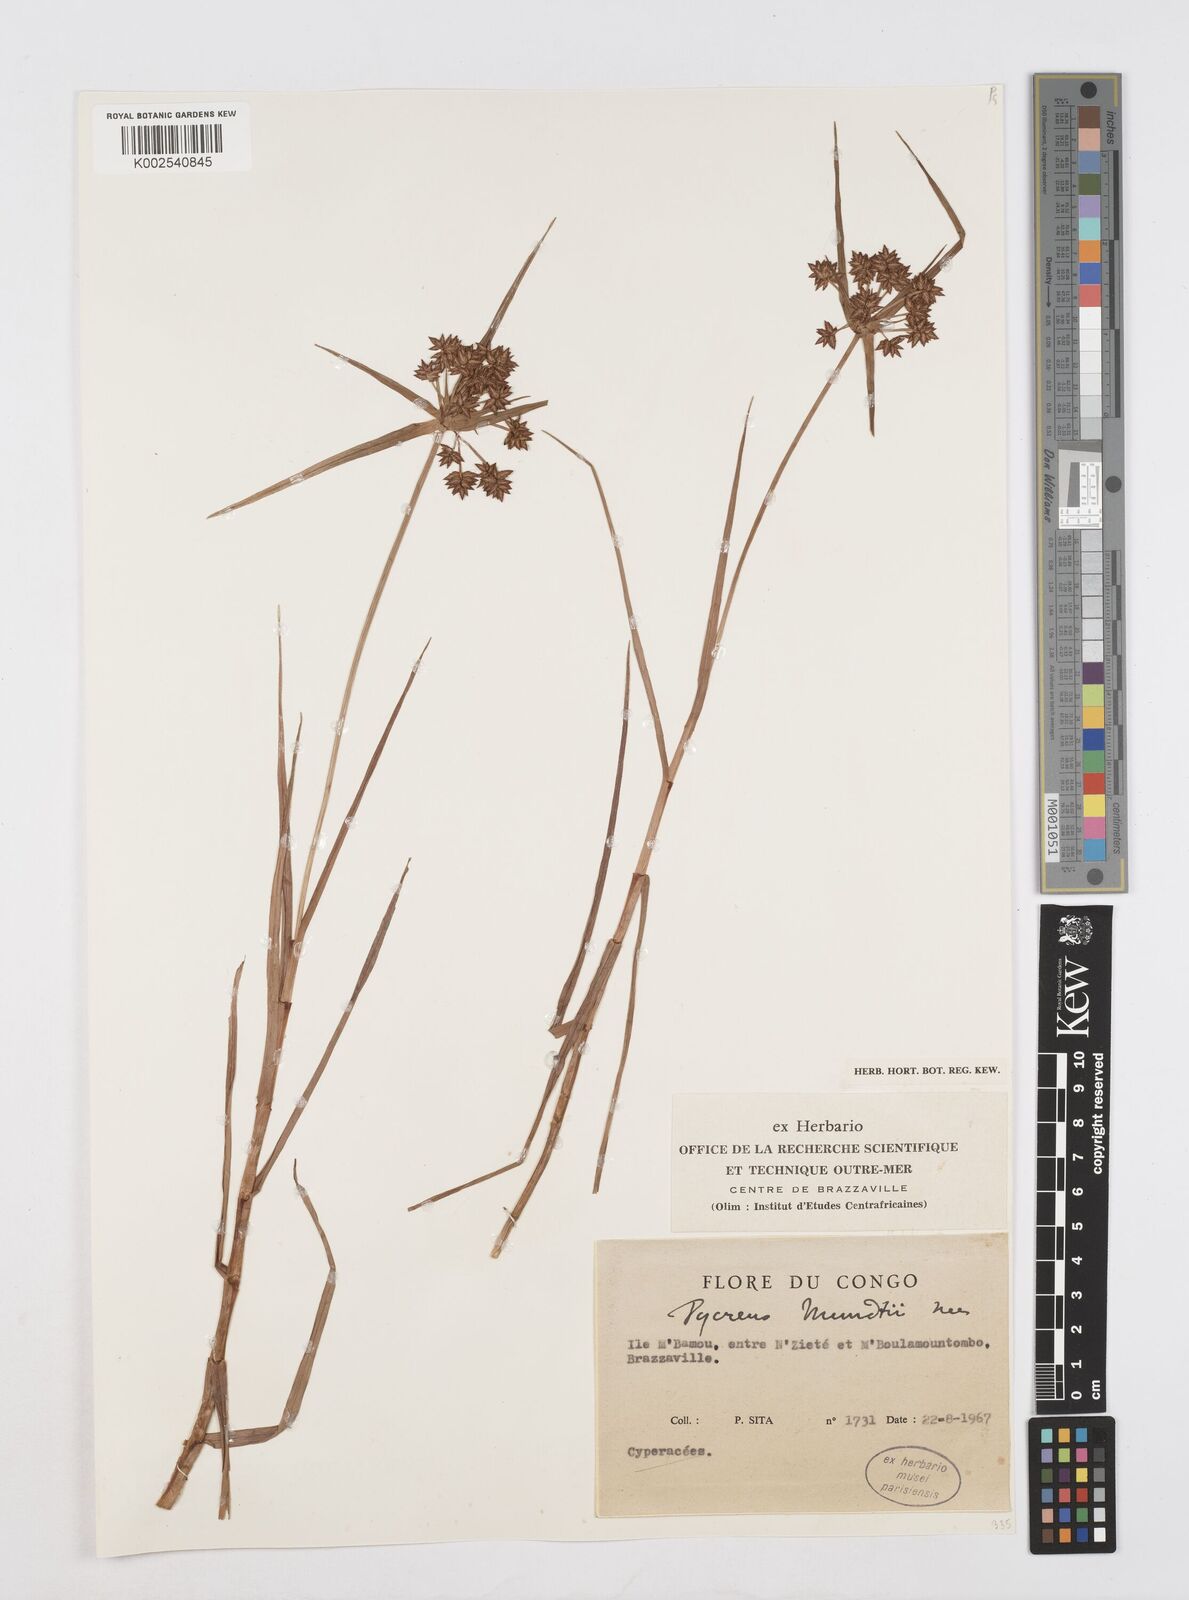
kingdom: Plantae
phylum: Tracheophyta
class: Liliopsida
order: Poales
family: Cyperaceae
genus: Cyperus
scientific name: Cyperus mundii
